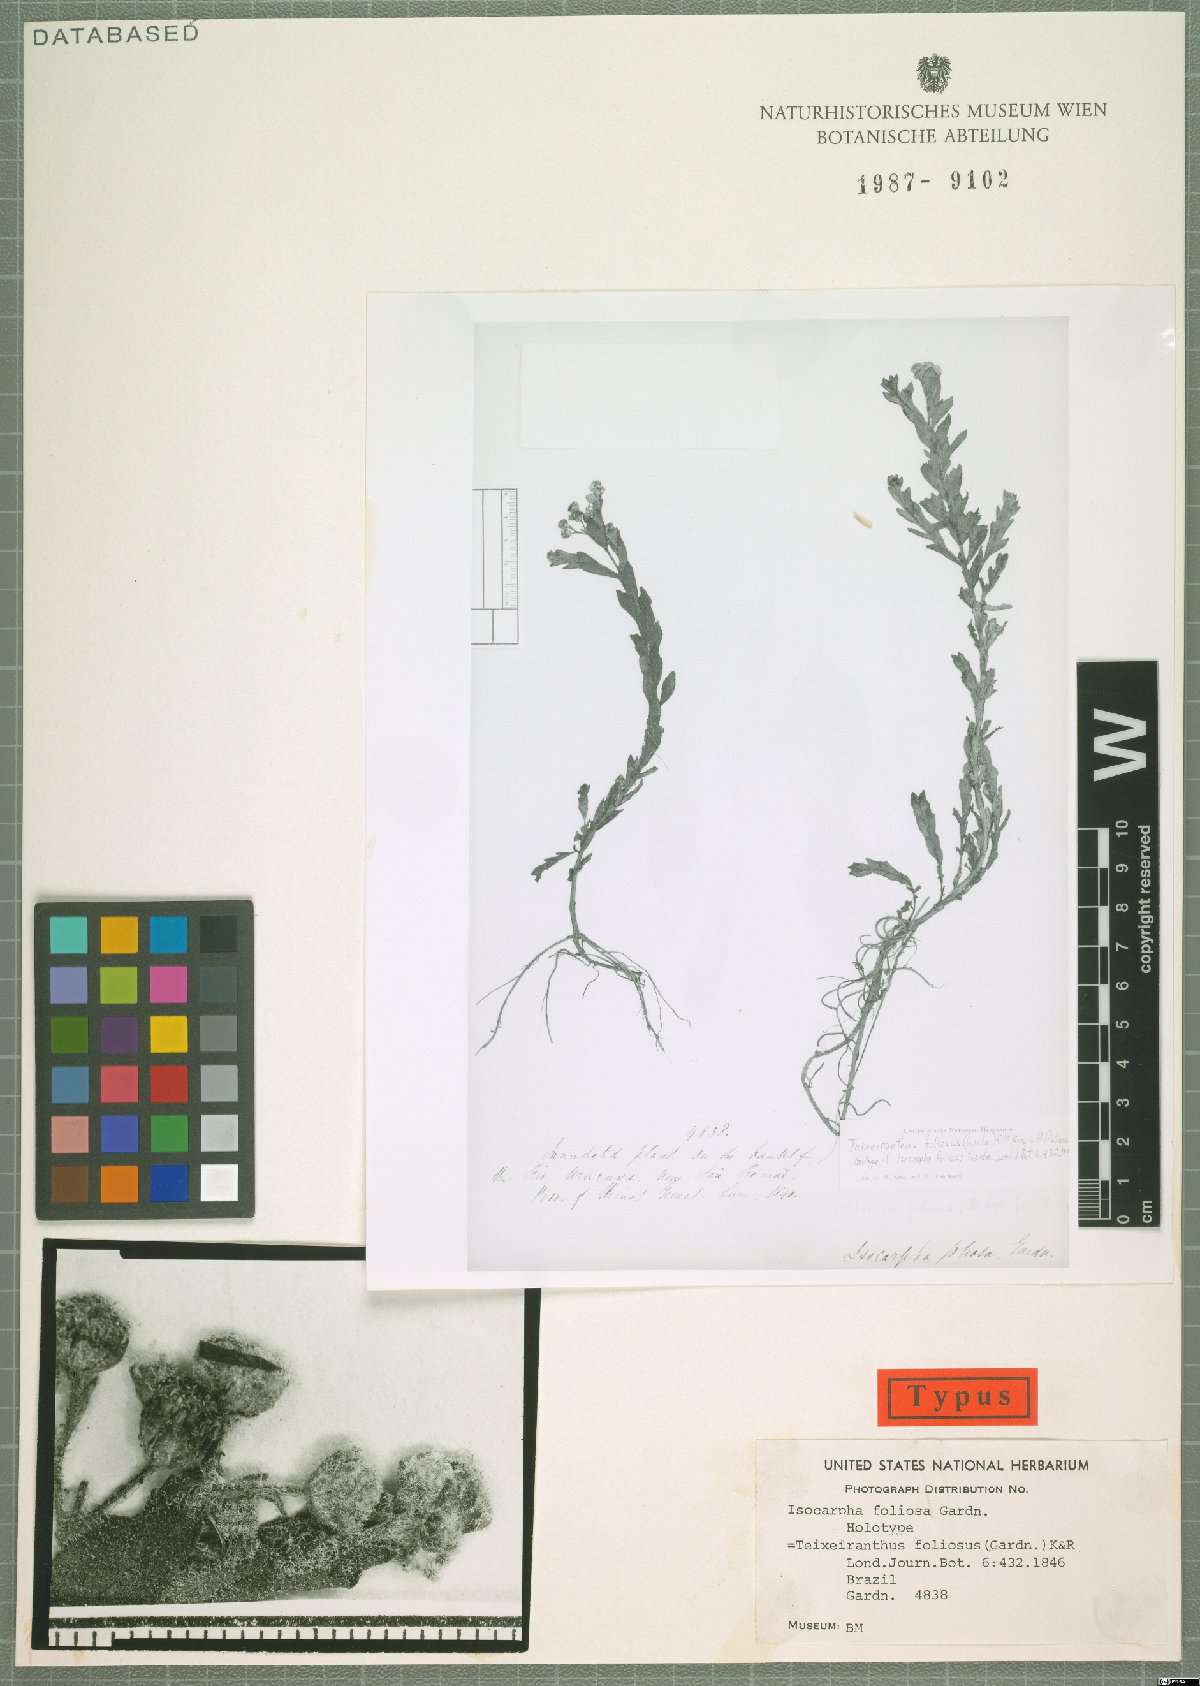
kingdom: Plantae
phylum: Tracheophyta
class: Magnoliopsida
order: Asterales
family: Asteraceae
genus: Teixeiranthus
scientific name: Teixeiranthus foliosus
